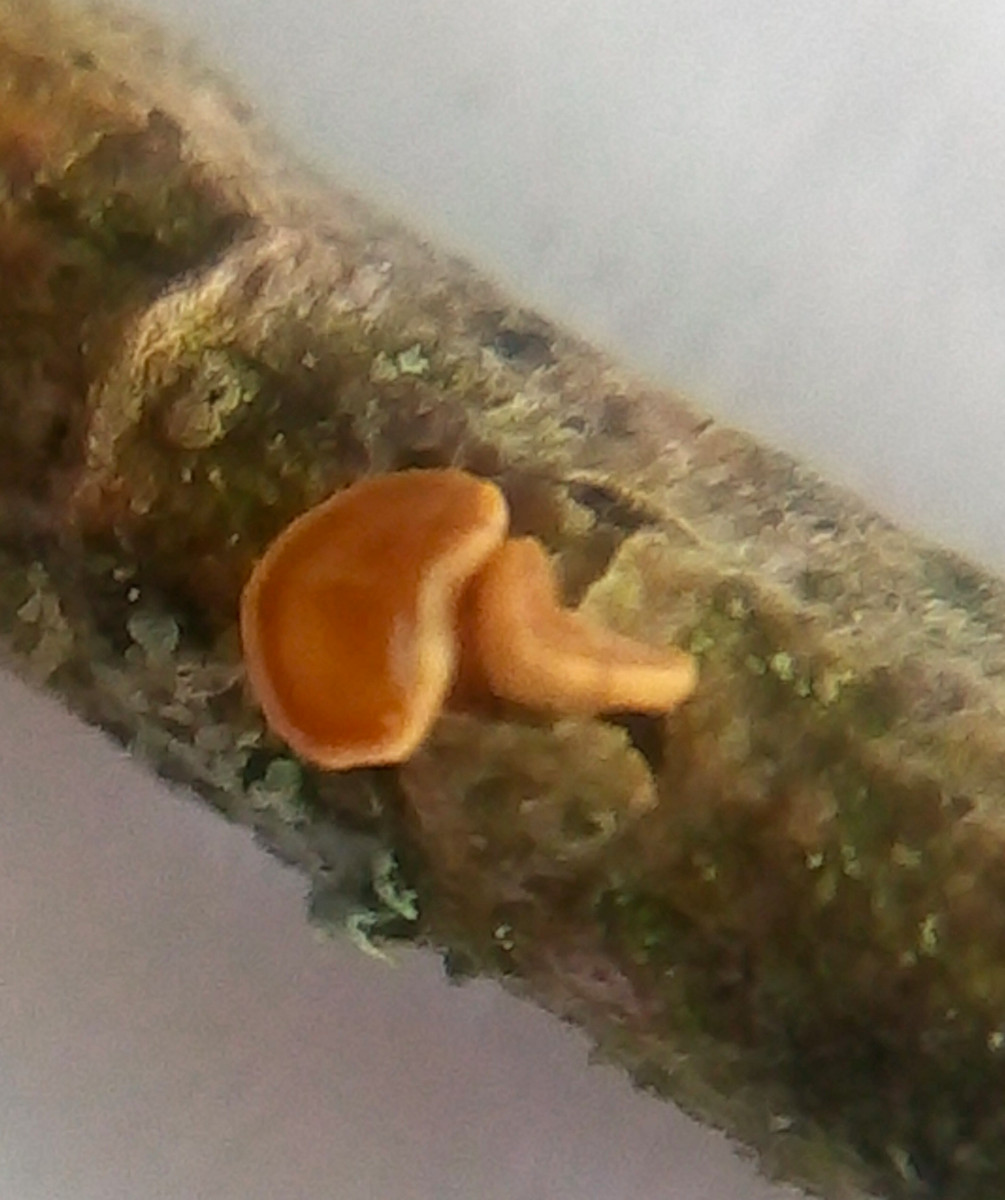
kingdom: Fungi
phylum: Ascomycota
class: Leotiomycetes
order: Helotiales
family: Helotiaceae
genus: Hymenoscyphus
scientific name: Hymenoscyphus calyculus
